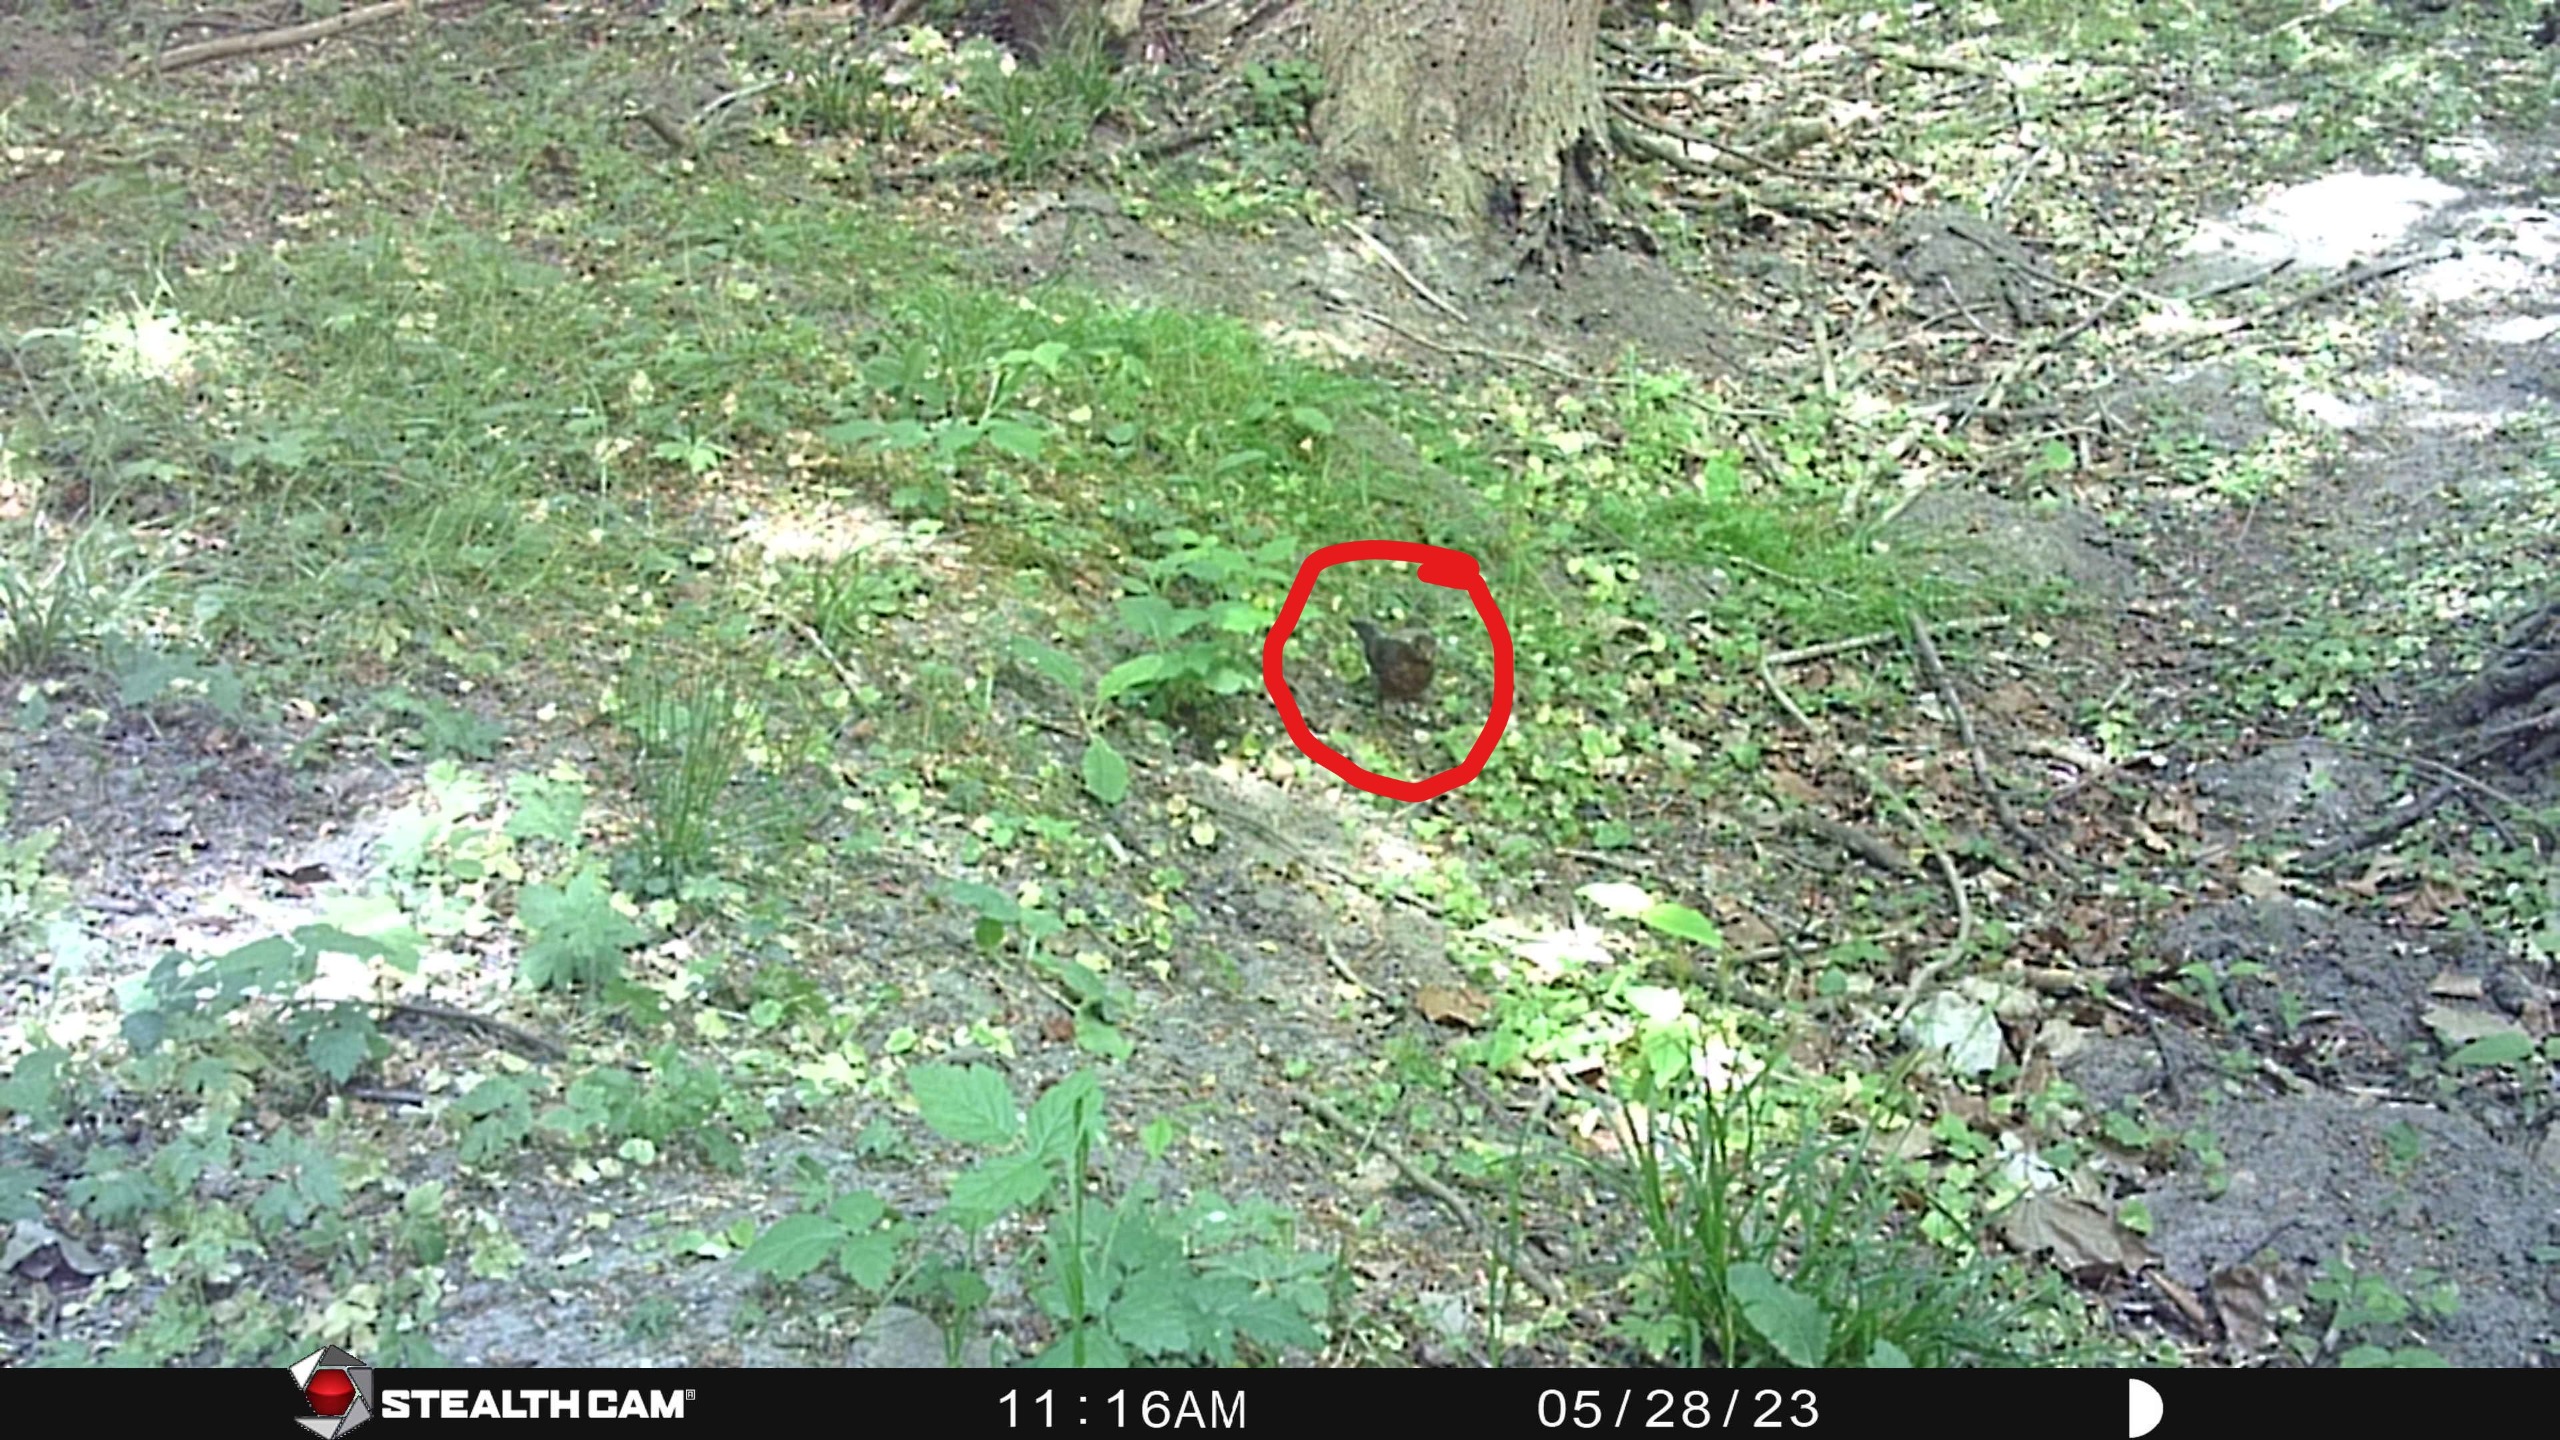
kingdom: Animalia
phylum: Chordata
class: Aves
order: Passeriformes
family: Turdidae
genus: Turdus
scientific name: Turdus merula
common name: Solsort
